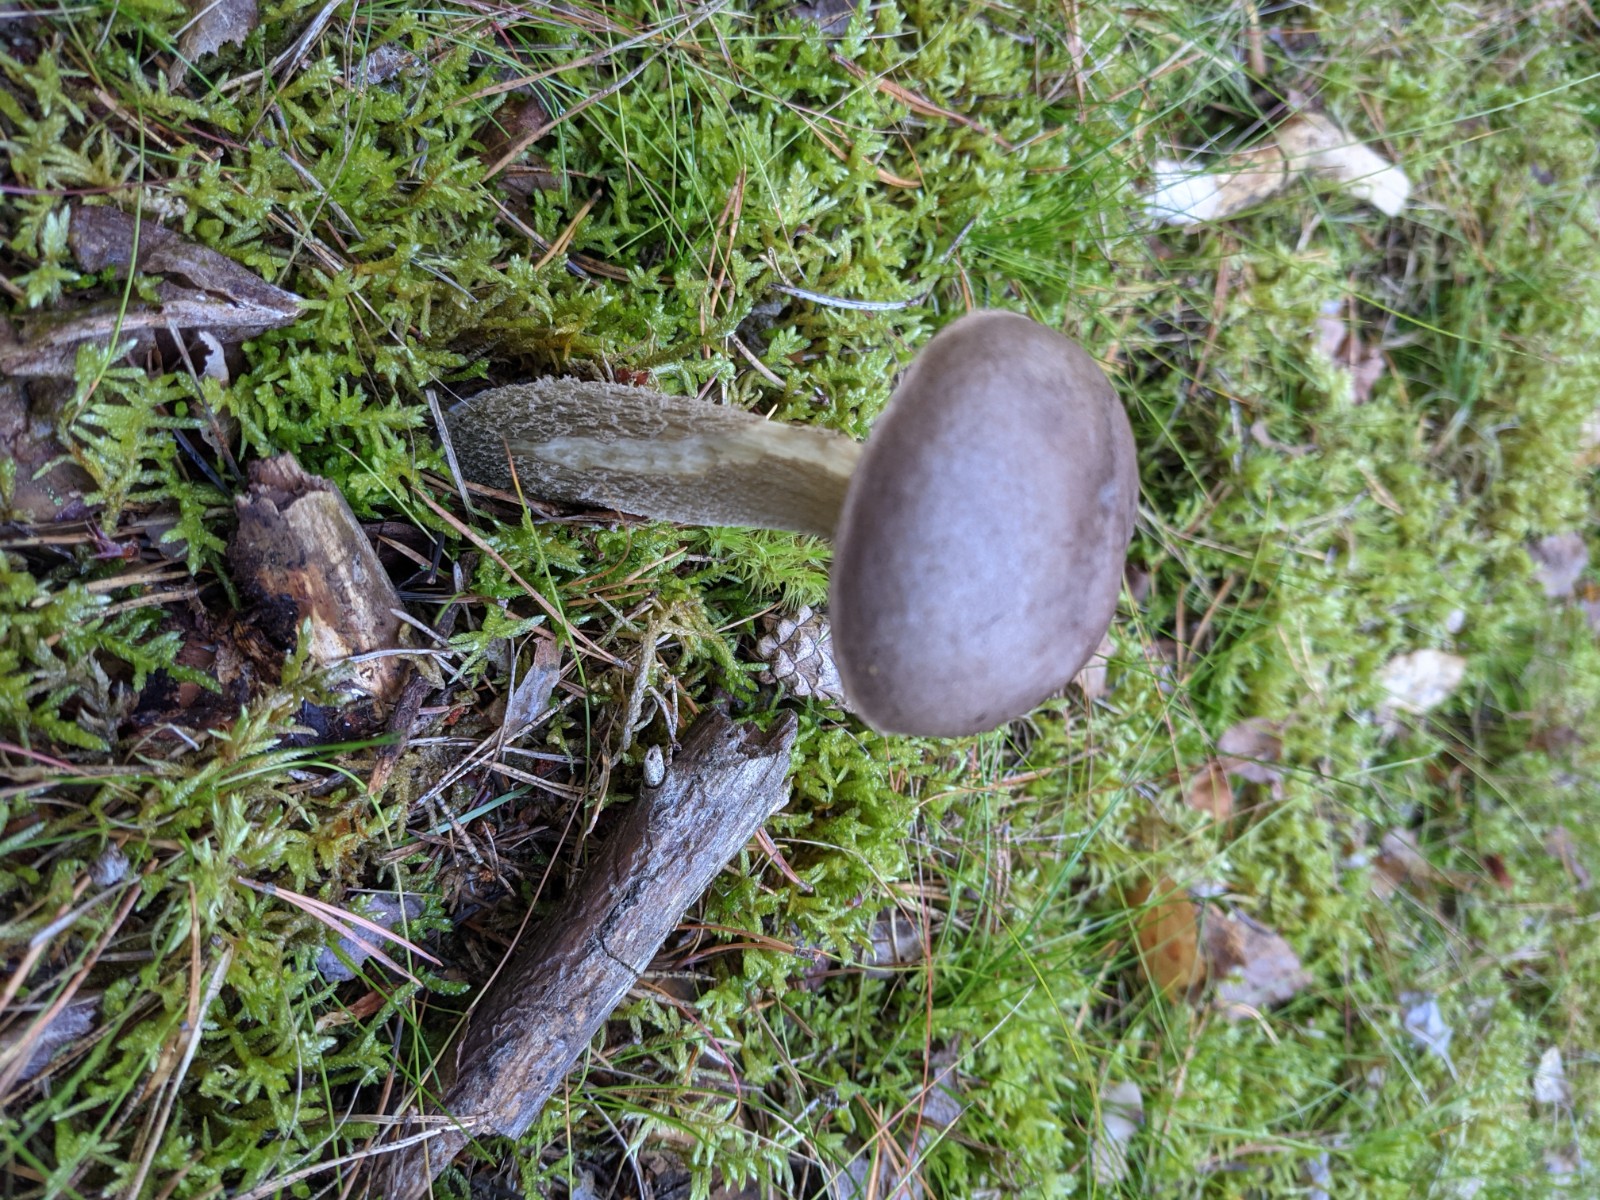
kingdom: Fungi
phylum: Basidiomycota
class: Agaricomycetes
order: Boletales
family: Boletaceae
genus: Leccinum
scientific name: Leccinum cyaneobasileucum
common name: almindelig skælrørhat
